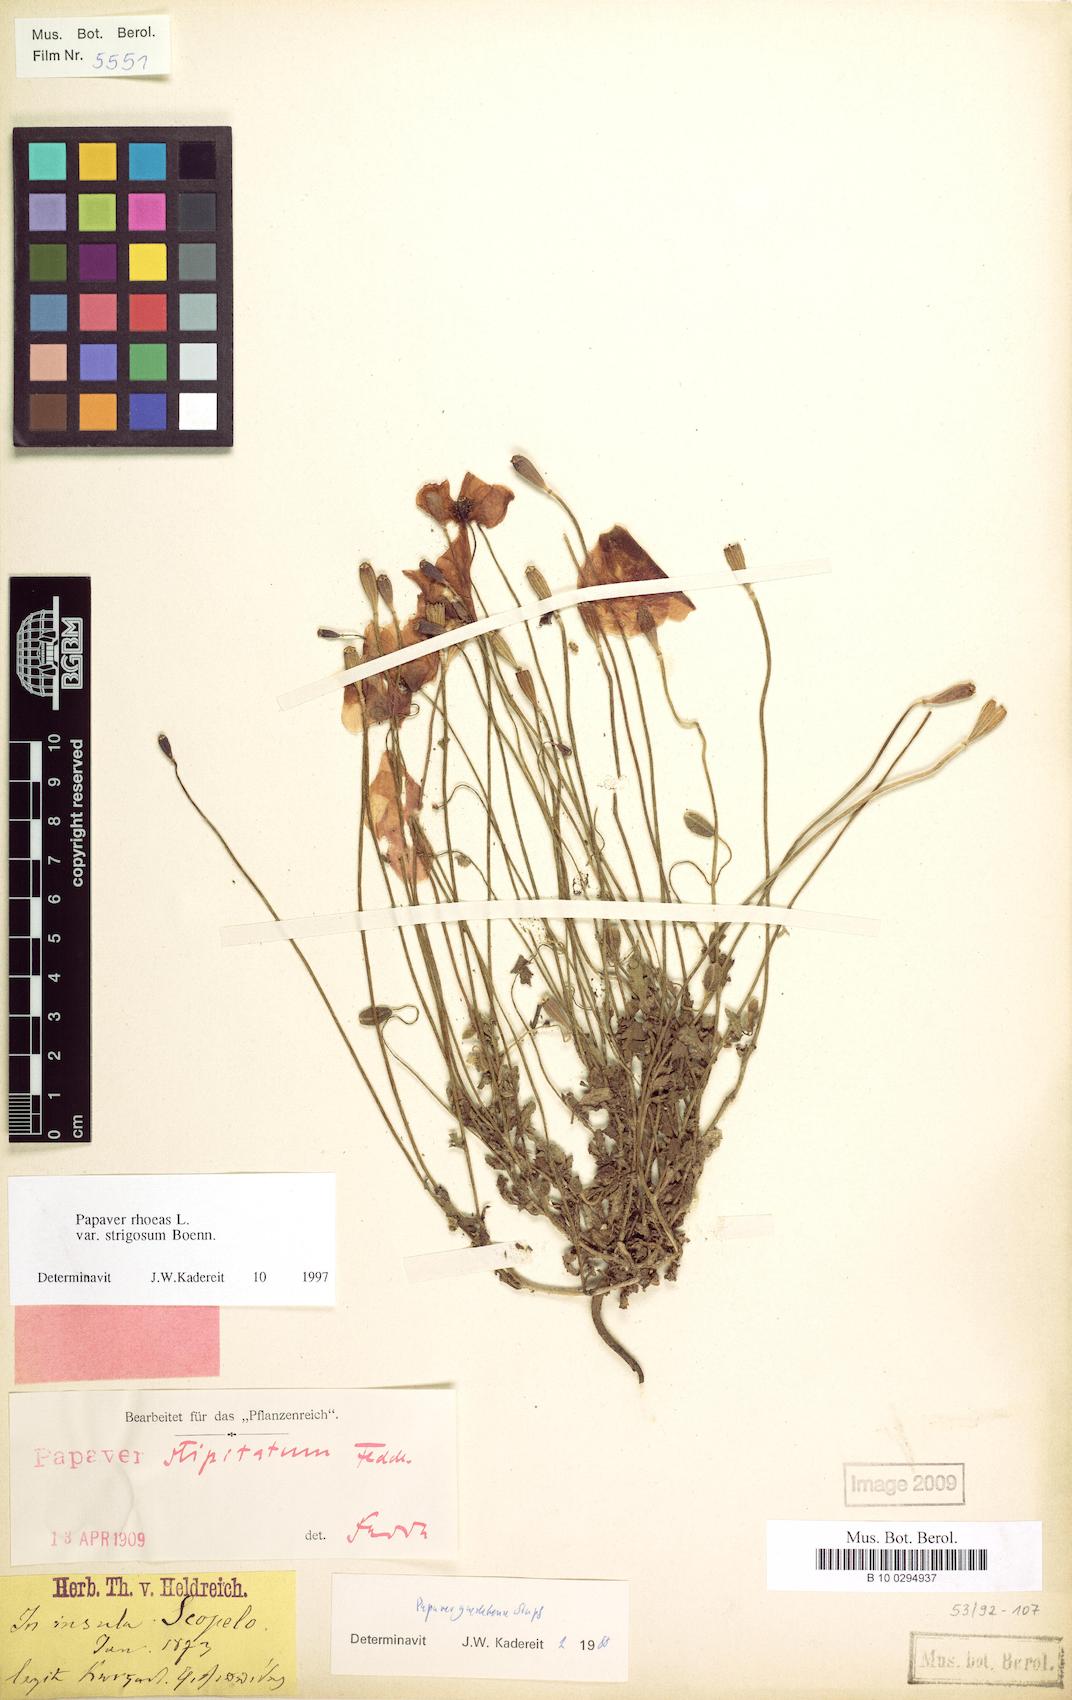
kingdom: Plantae
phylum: Tracheophyta
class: Magnoliopsida
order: Ranunculales
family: Papaveraceae
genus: Papaver
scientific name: Papaver rhoeas
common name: Corn poppy
